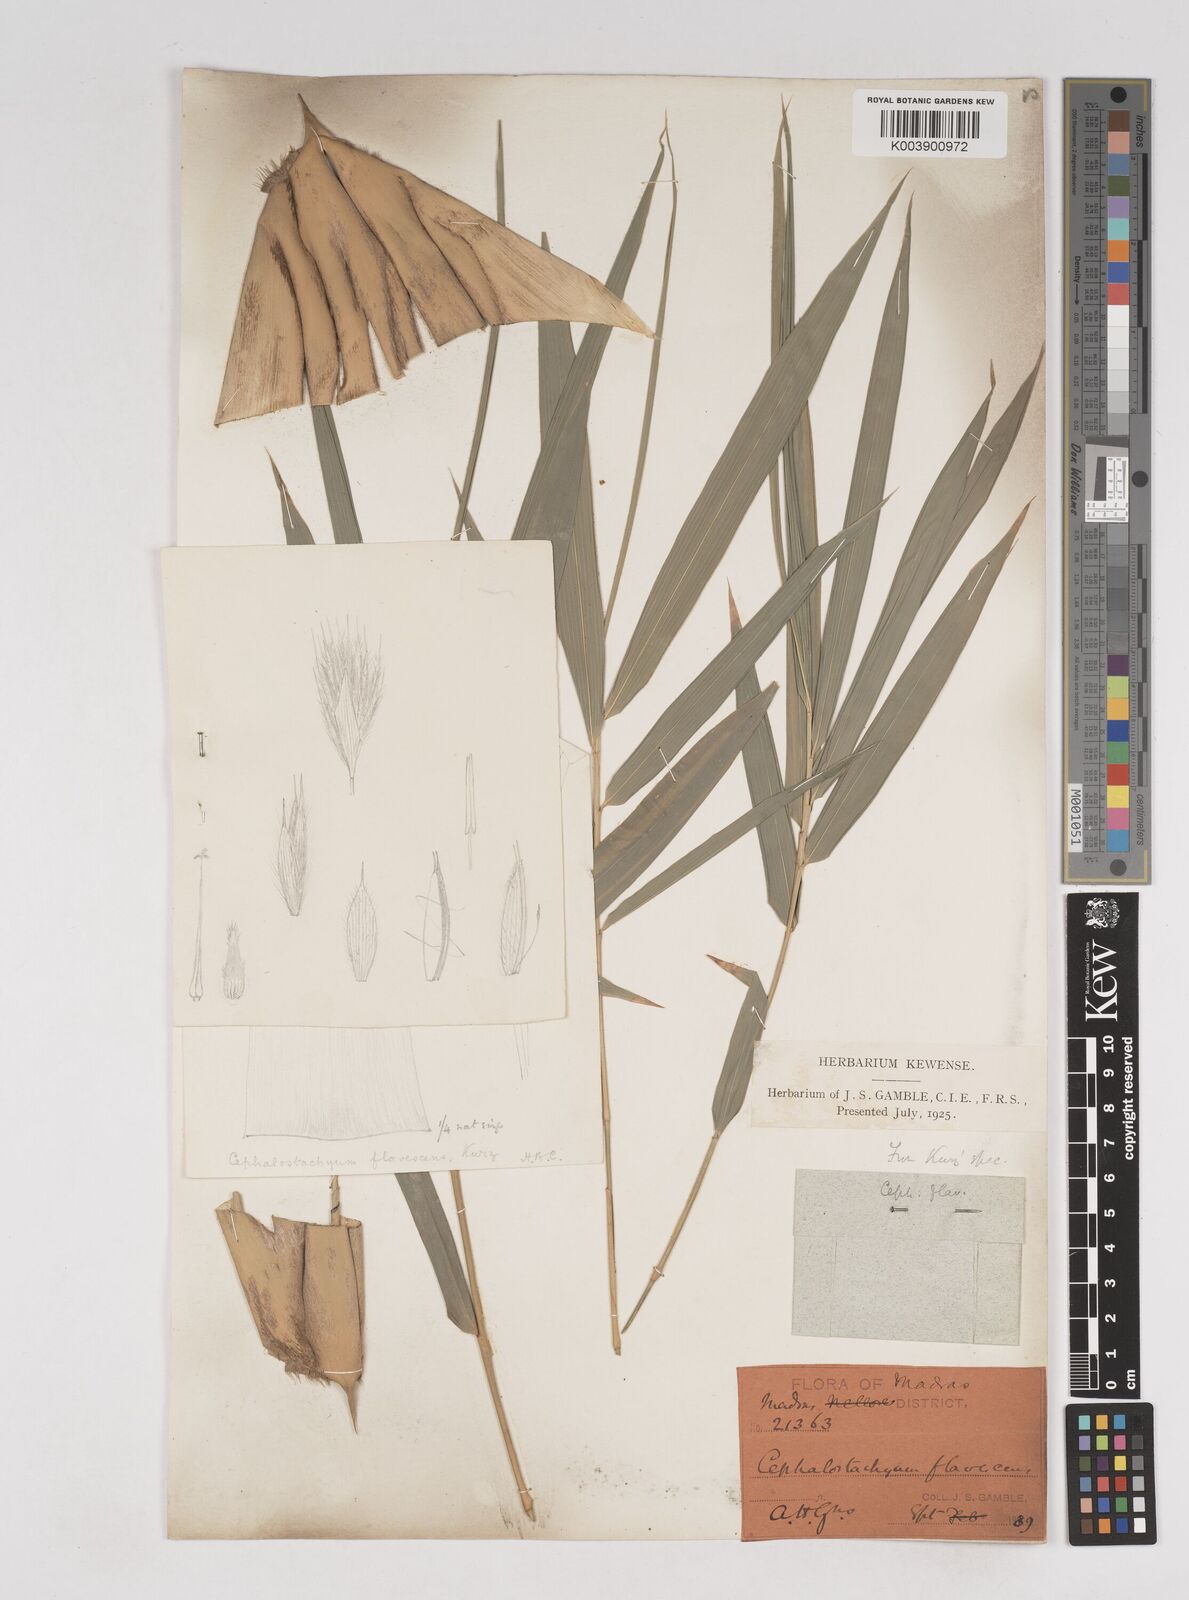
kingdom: Plantae
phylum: Tracheophyta
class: Liliopsida
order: Poales
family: Poaceae
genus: Cephalostachyum
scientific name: Cephalostachyum flavescens
